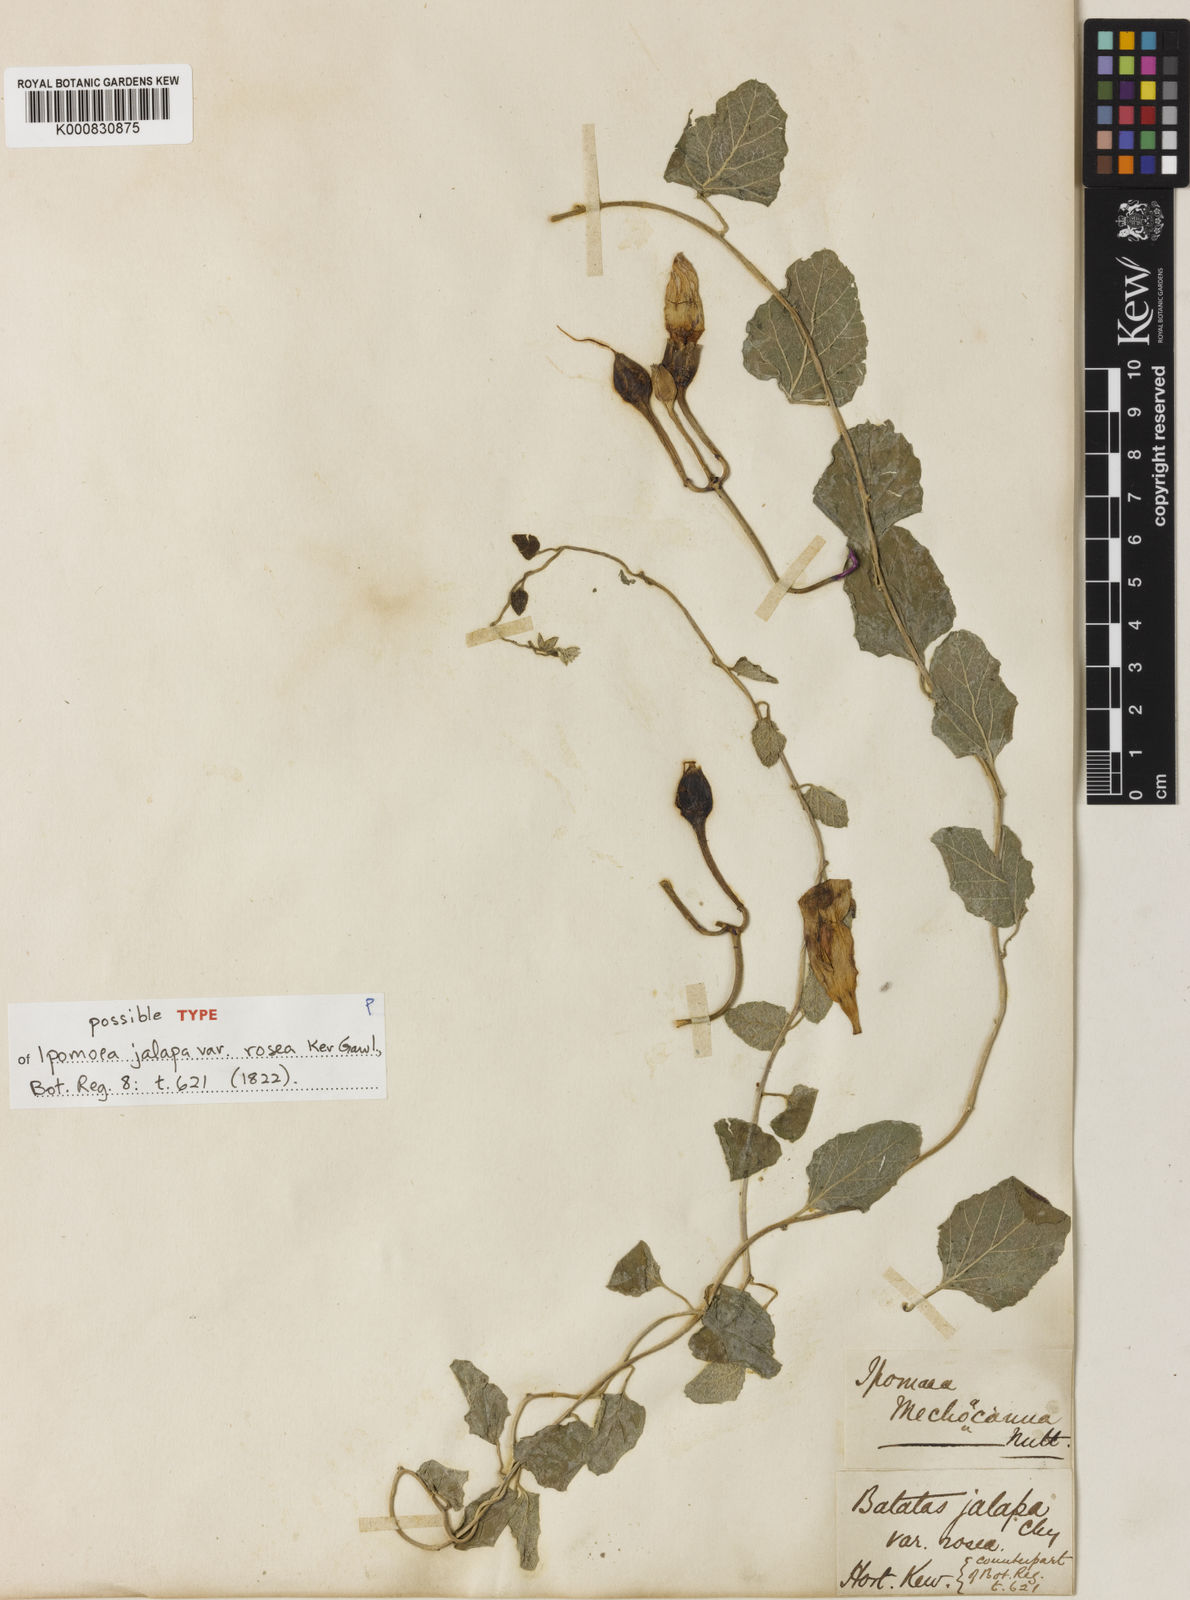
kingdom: Plantae
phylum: Tracheophyta
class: Magnoliopsida
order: Solanales
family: Convolvulaceae
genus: Ipomoea
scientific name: Ipomoea jalapa
